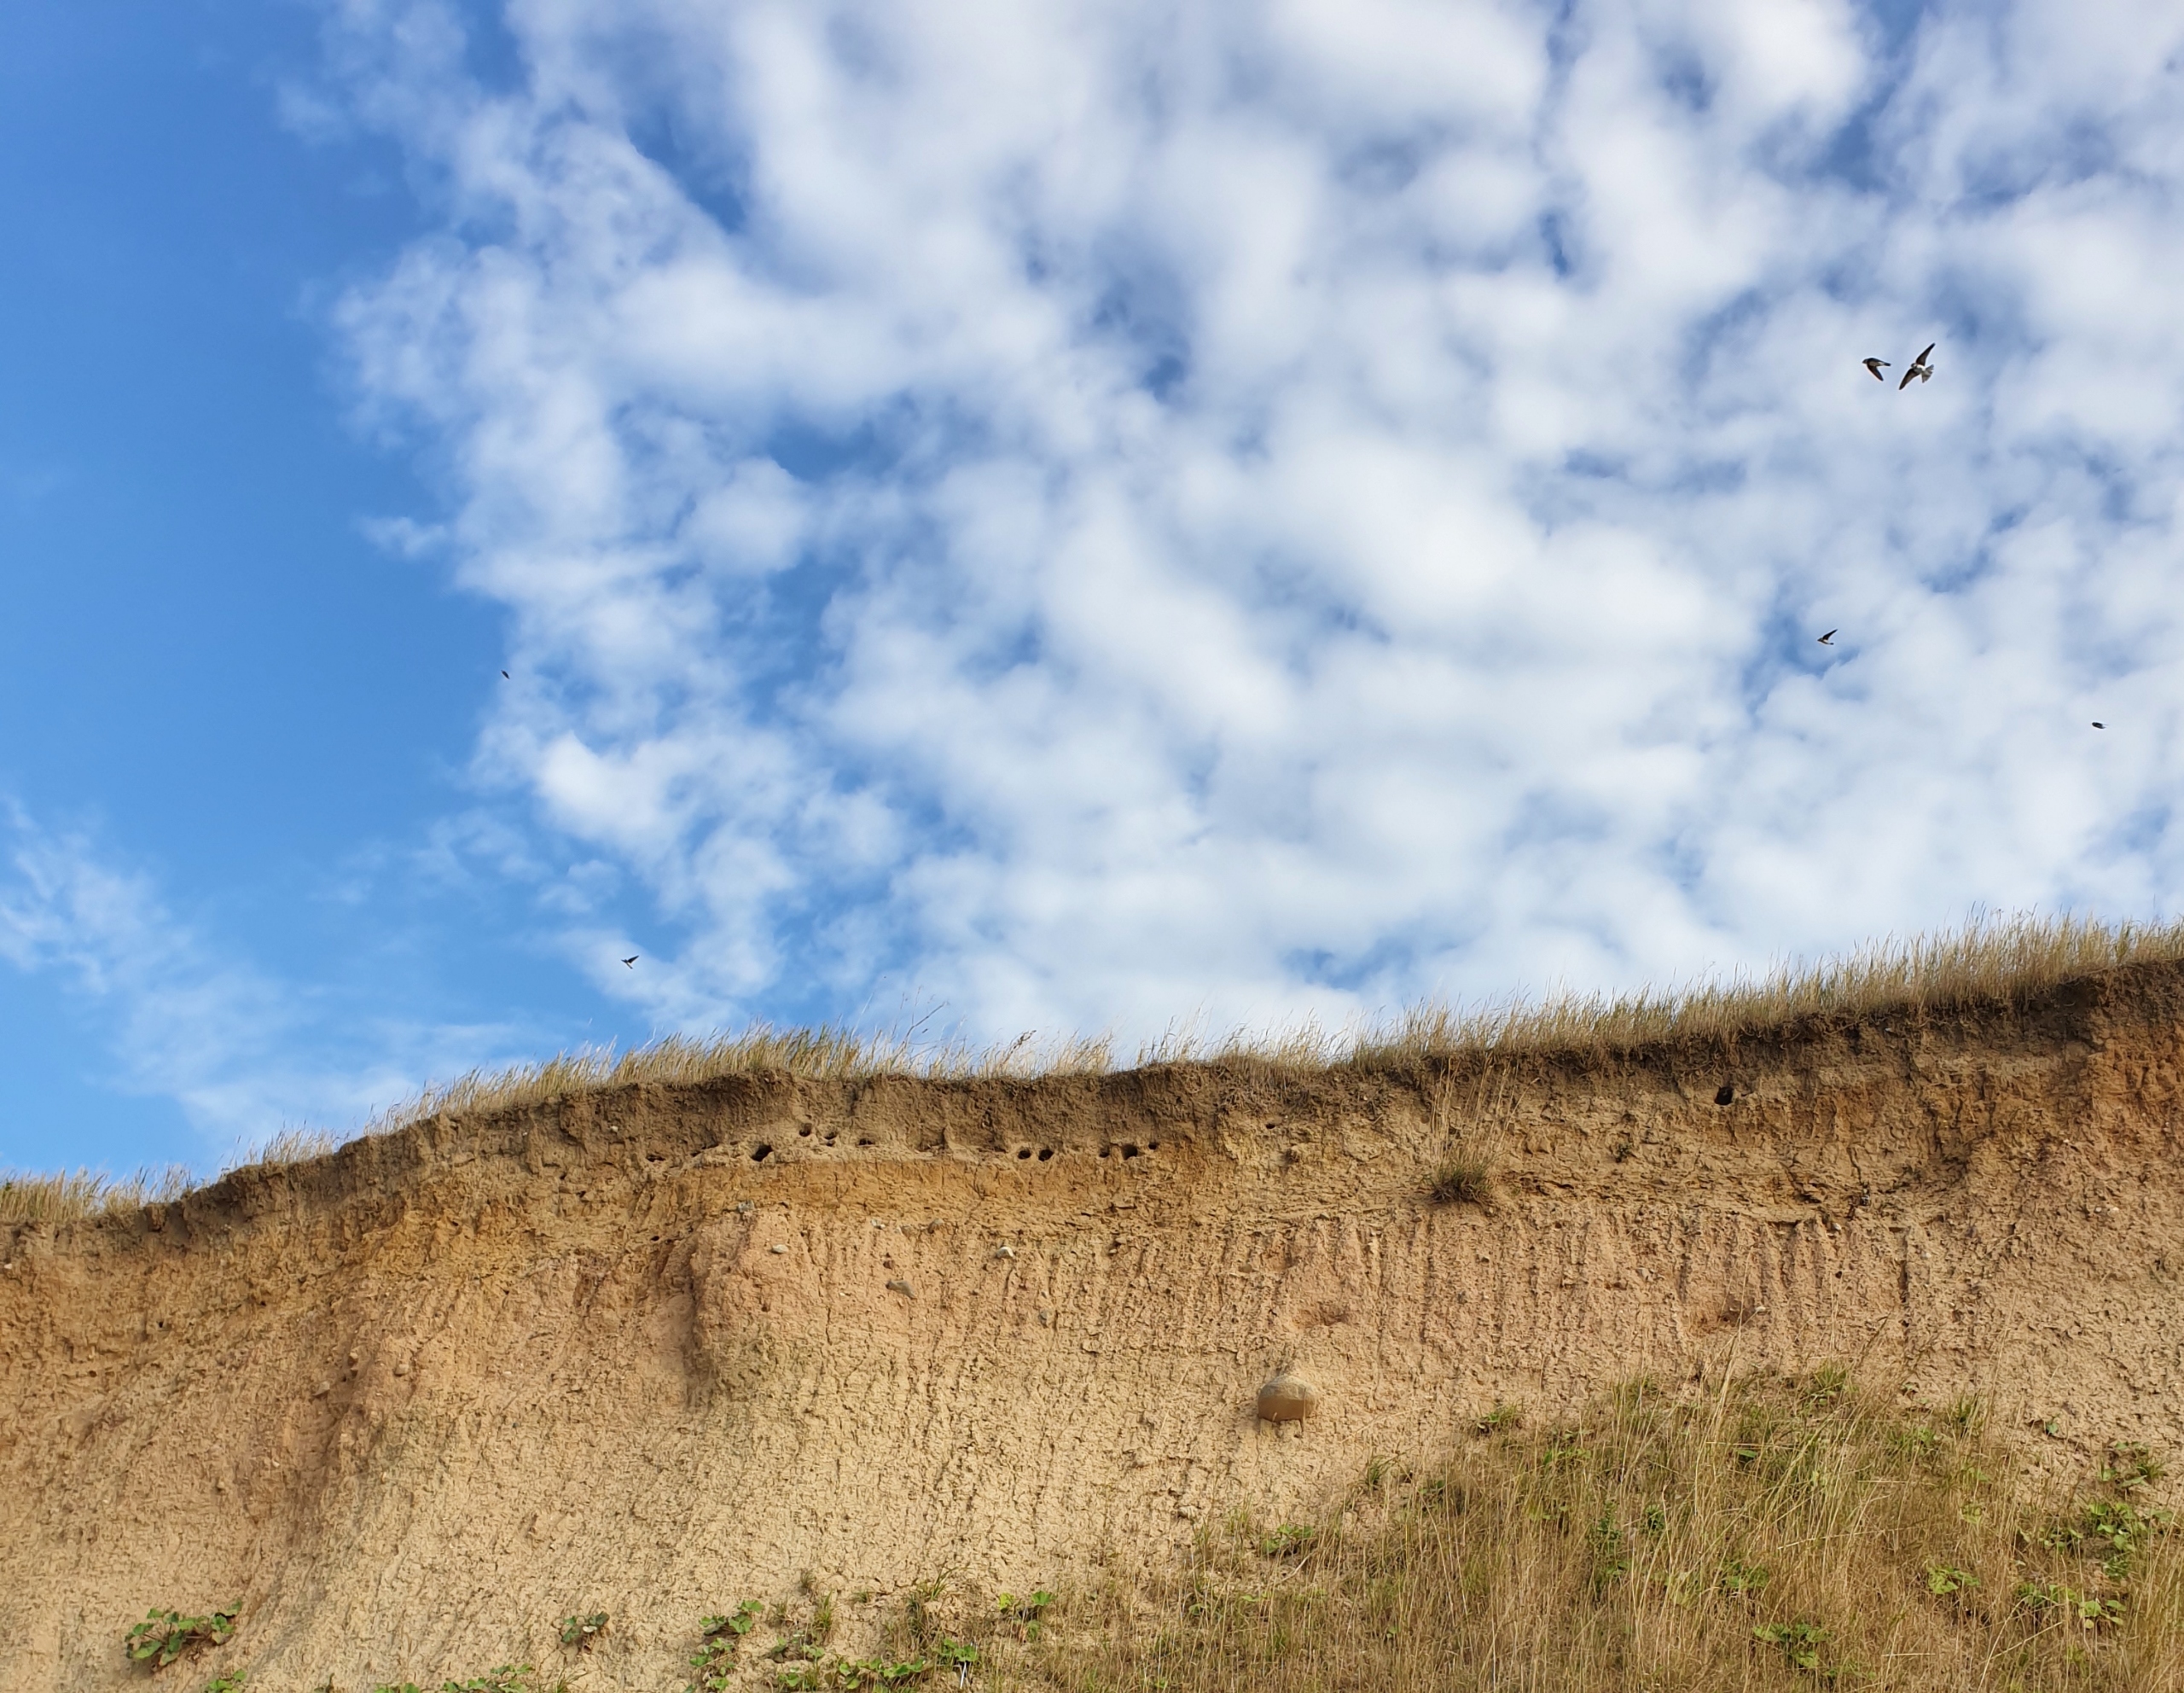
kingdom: Animalia
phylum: Chordata
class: Aves
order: Passeriformes
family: Hirundinidae
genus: Riparia
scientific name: Riparia riparia
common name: Digesvale
